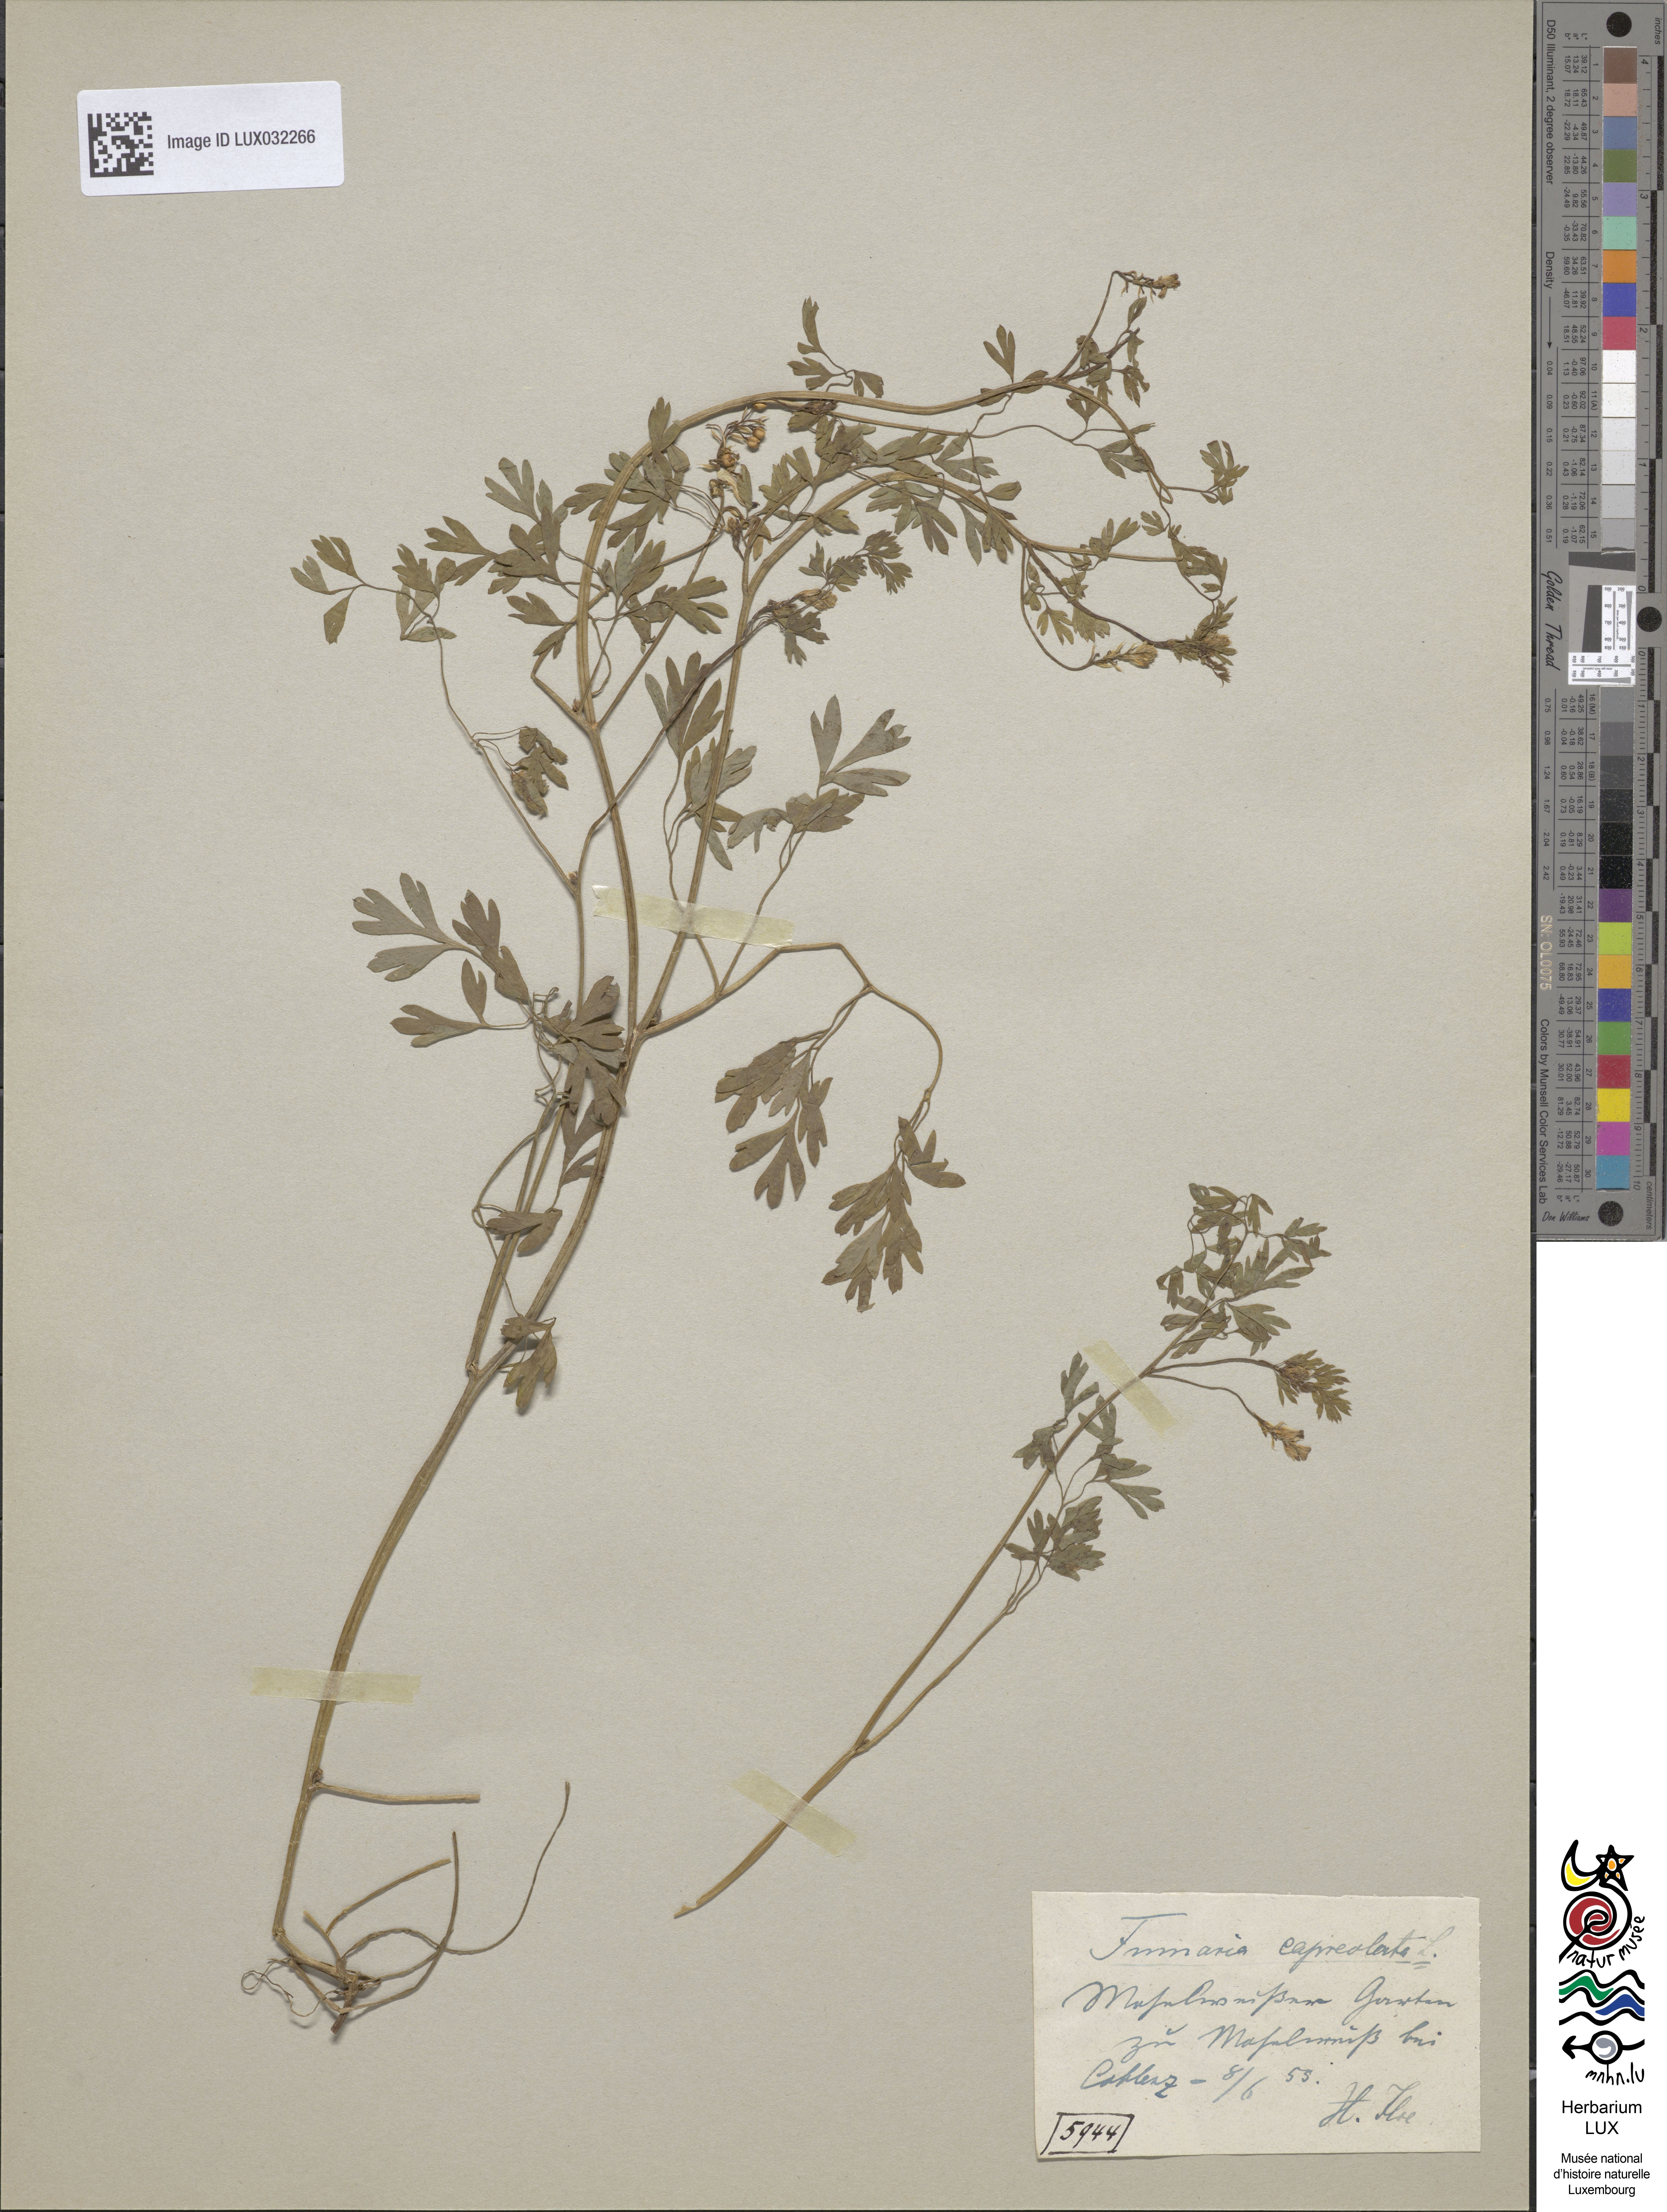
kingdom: Plantae
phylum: Tracheophyta
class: Magnoliopsida
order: Ranunculales
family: Papaveraceae
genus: Fumaria
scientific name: Fumaria capreolata
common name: White ramping-fumitory
